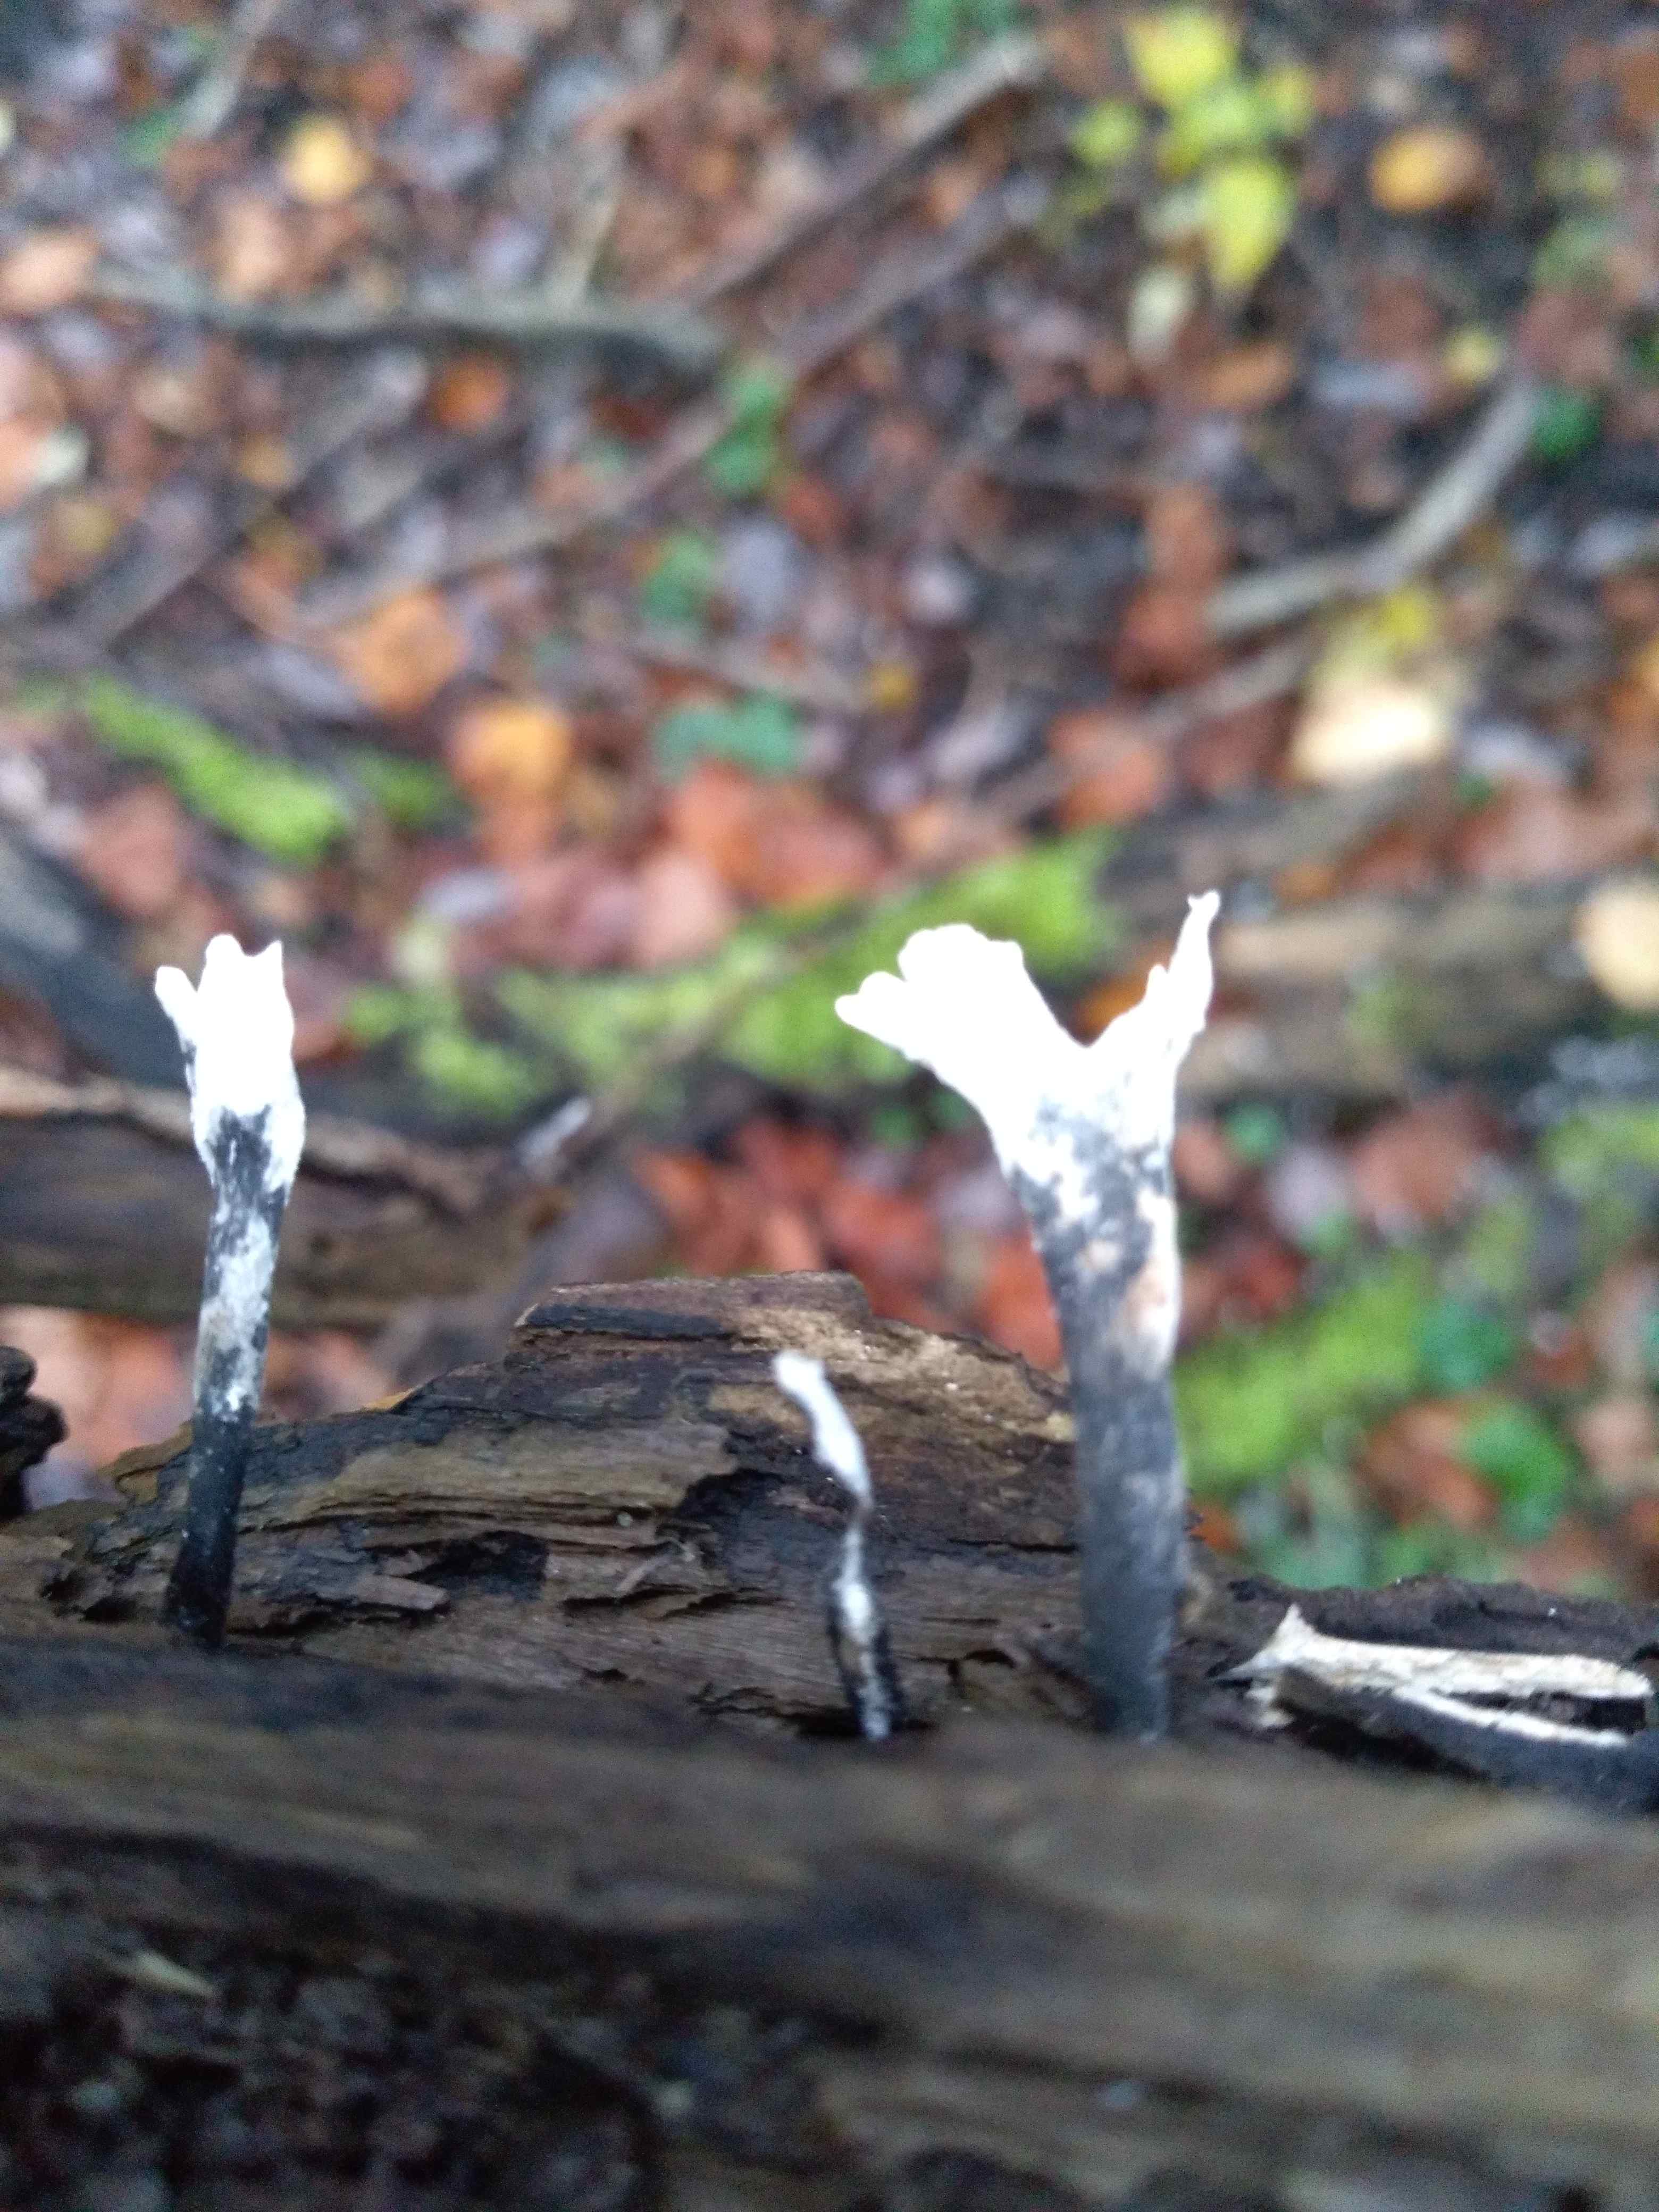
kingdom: Fungi
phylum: Ascomycota
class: Sordariomycetes
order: Xylariales
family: Xylariaceae
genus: Xylaria
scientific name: Xylaria hypoxylon
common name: grenet stødsvamp
